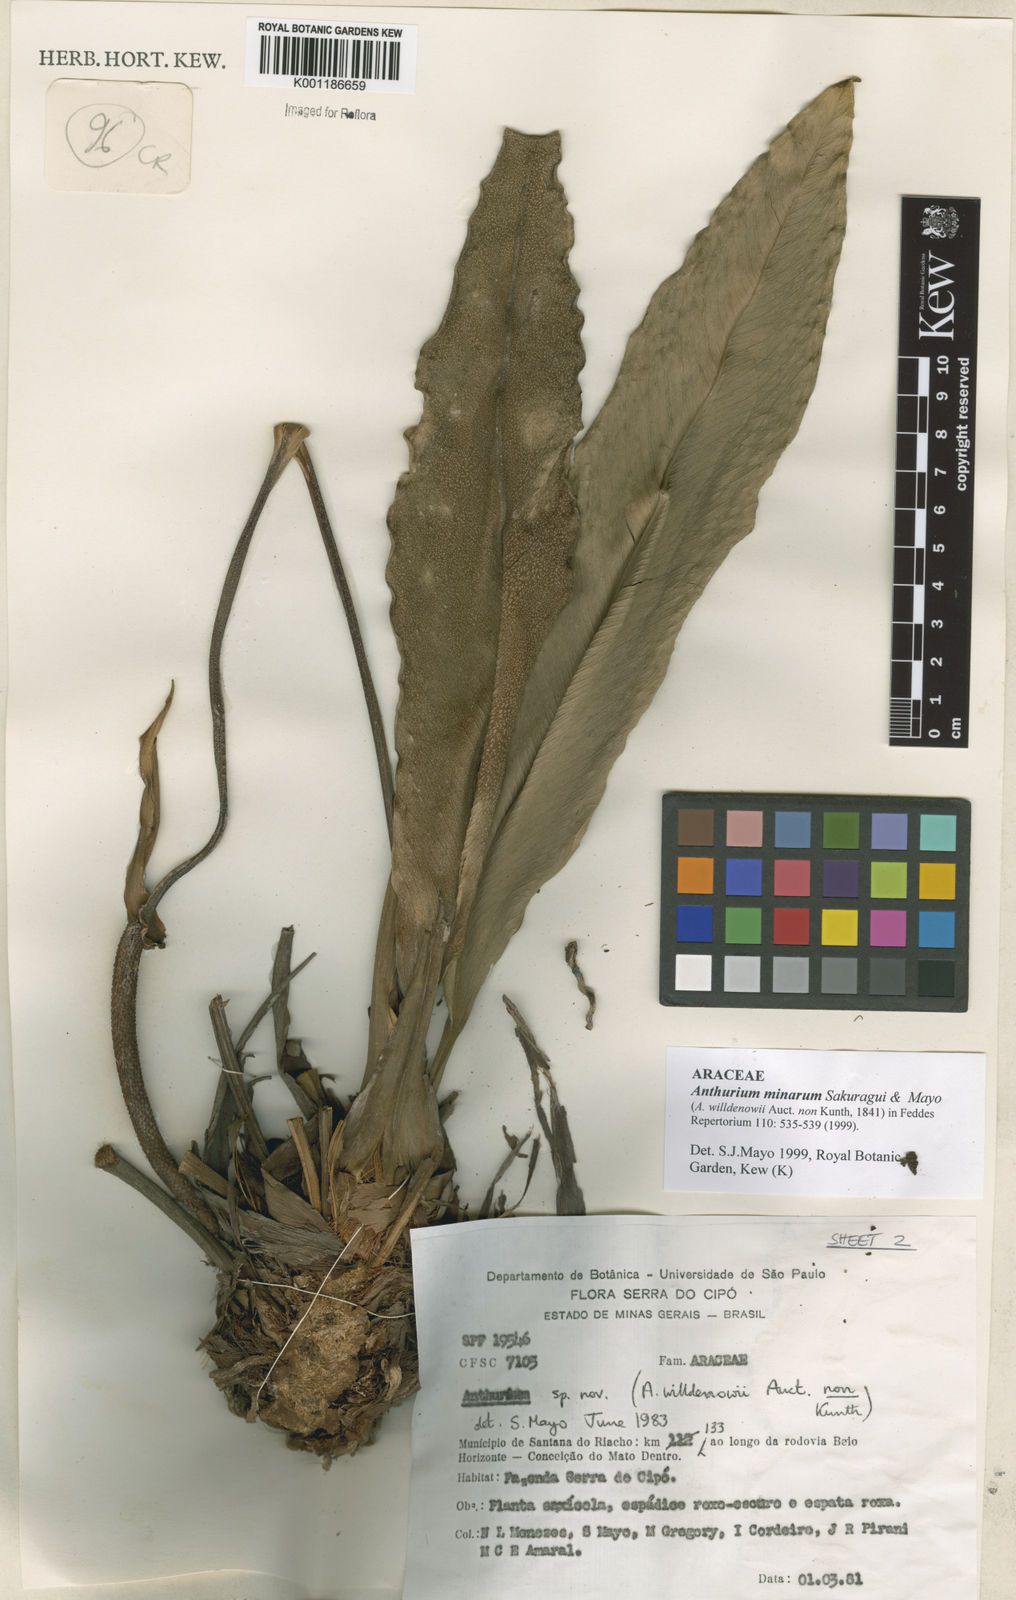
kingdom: Plantae
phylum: Tracheophyta
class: Liliopsida
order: Alismatales
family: Araceae
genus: Anthurium
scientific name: Anthurium minarum
